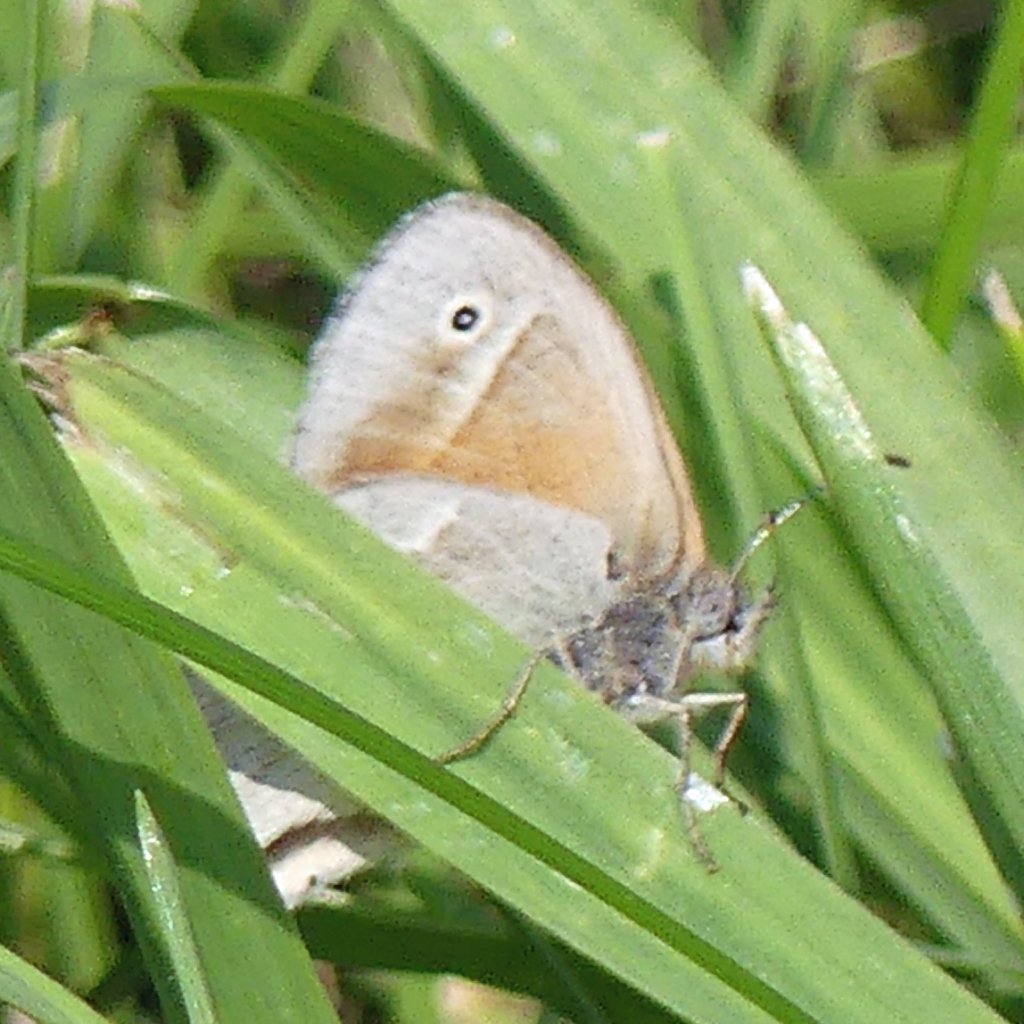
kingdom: Animalia
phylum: Arthropoda
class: Insecta
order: Lepidoptera
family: Nymphalidae
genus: Coenonympha
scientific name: Coenonympha tullia
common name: Large Heath
